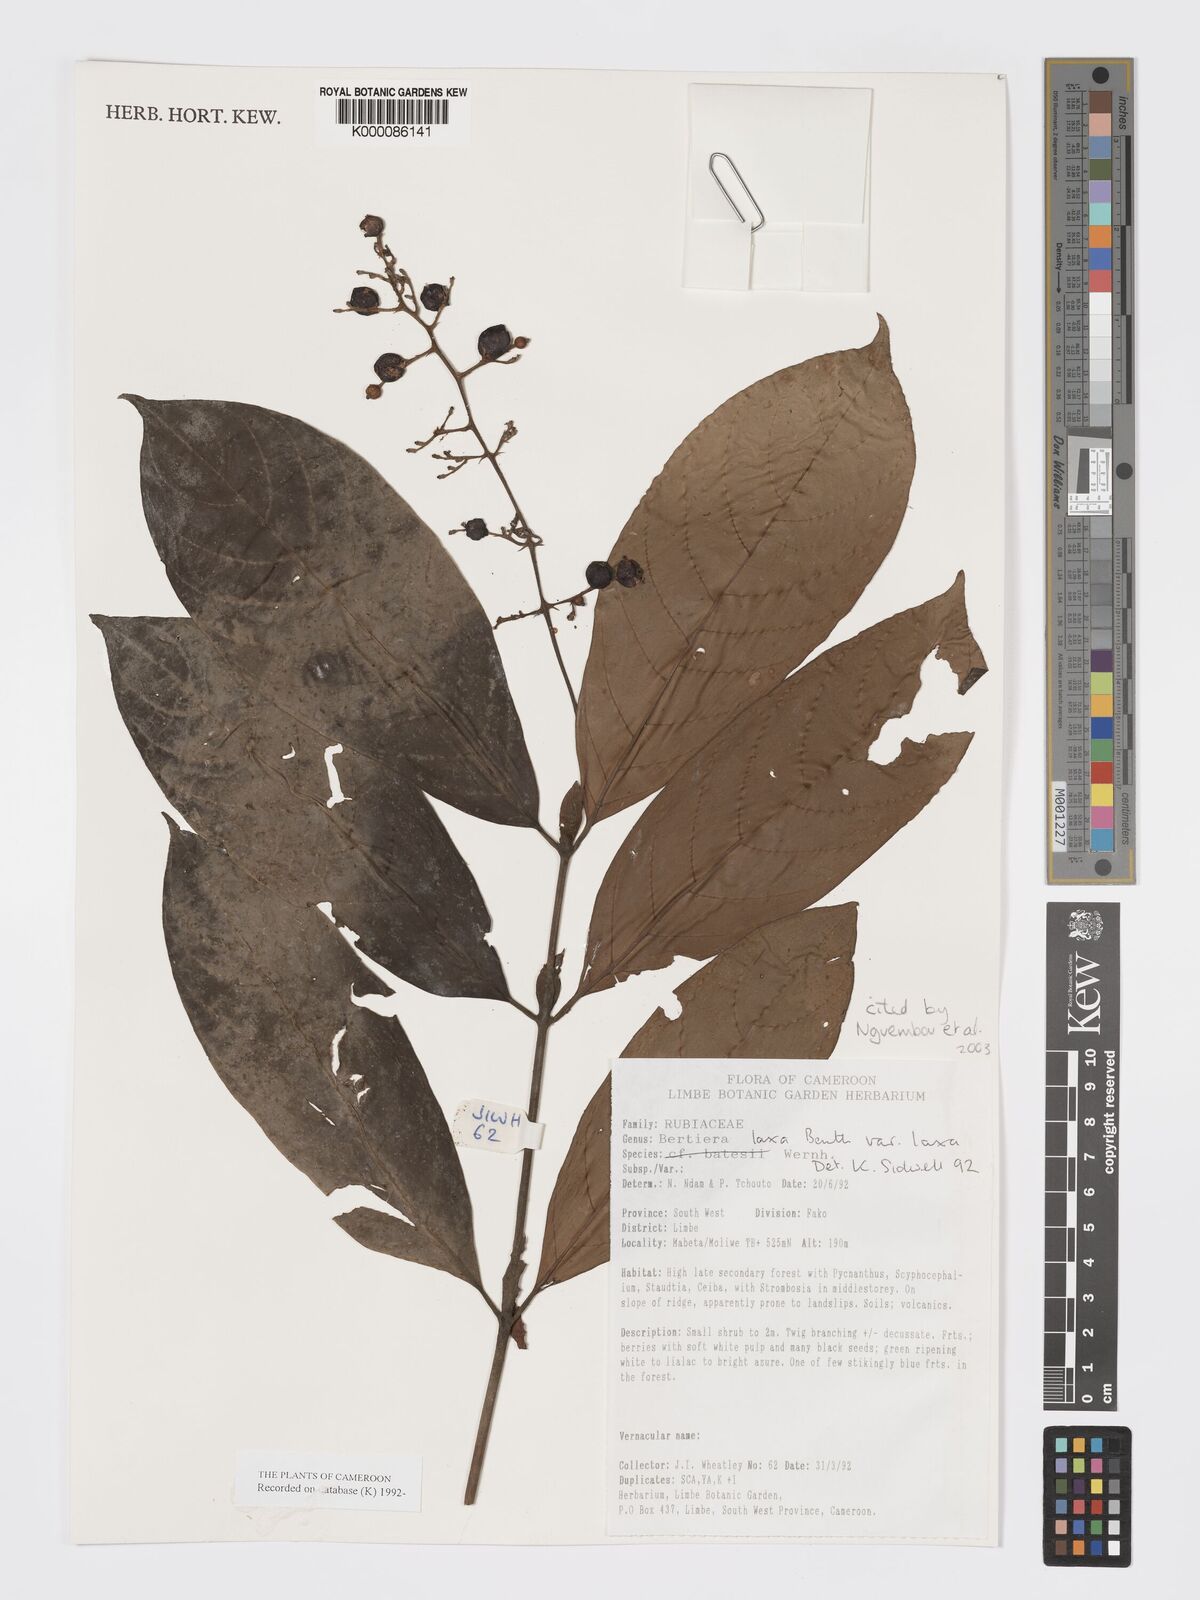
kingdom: Plantae
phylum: Tracheophyta
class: Magnoliopsida
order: Gentianales
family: Rubiaceae
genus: Bertiera
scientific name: Bertiera laxa
